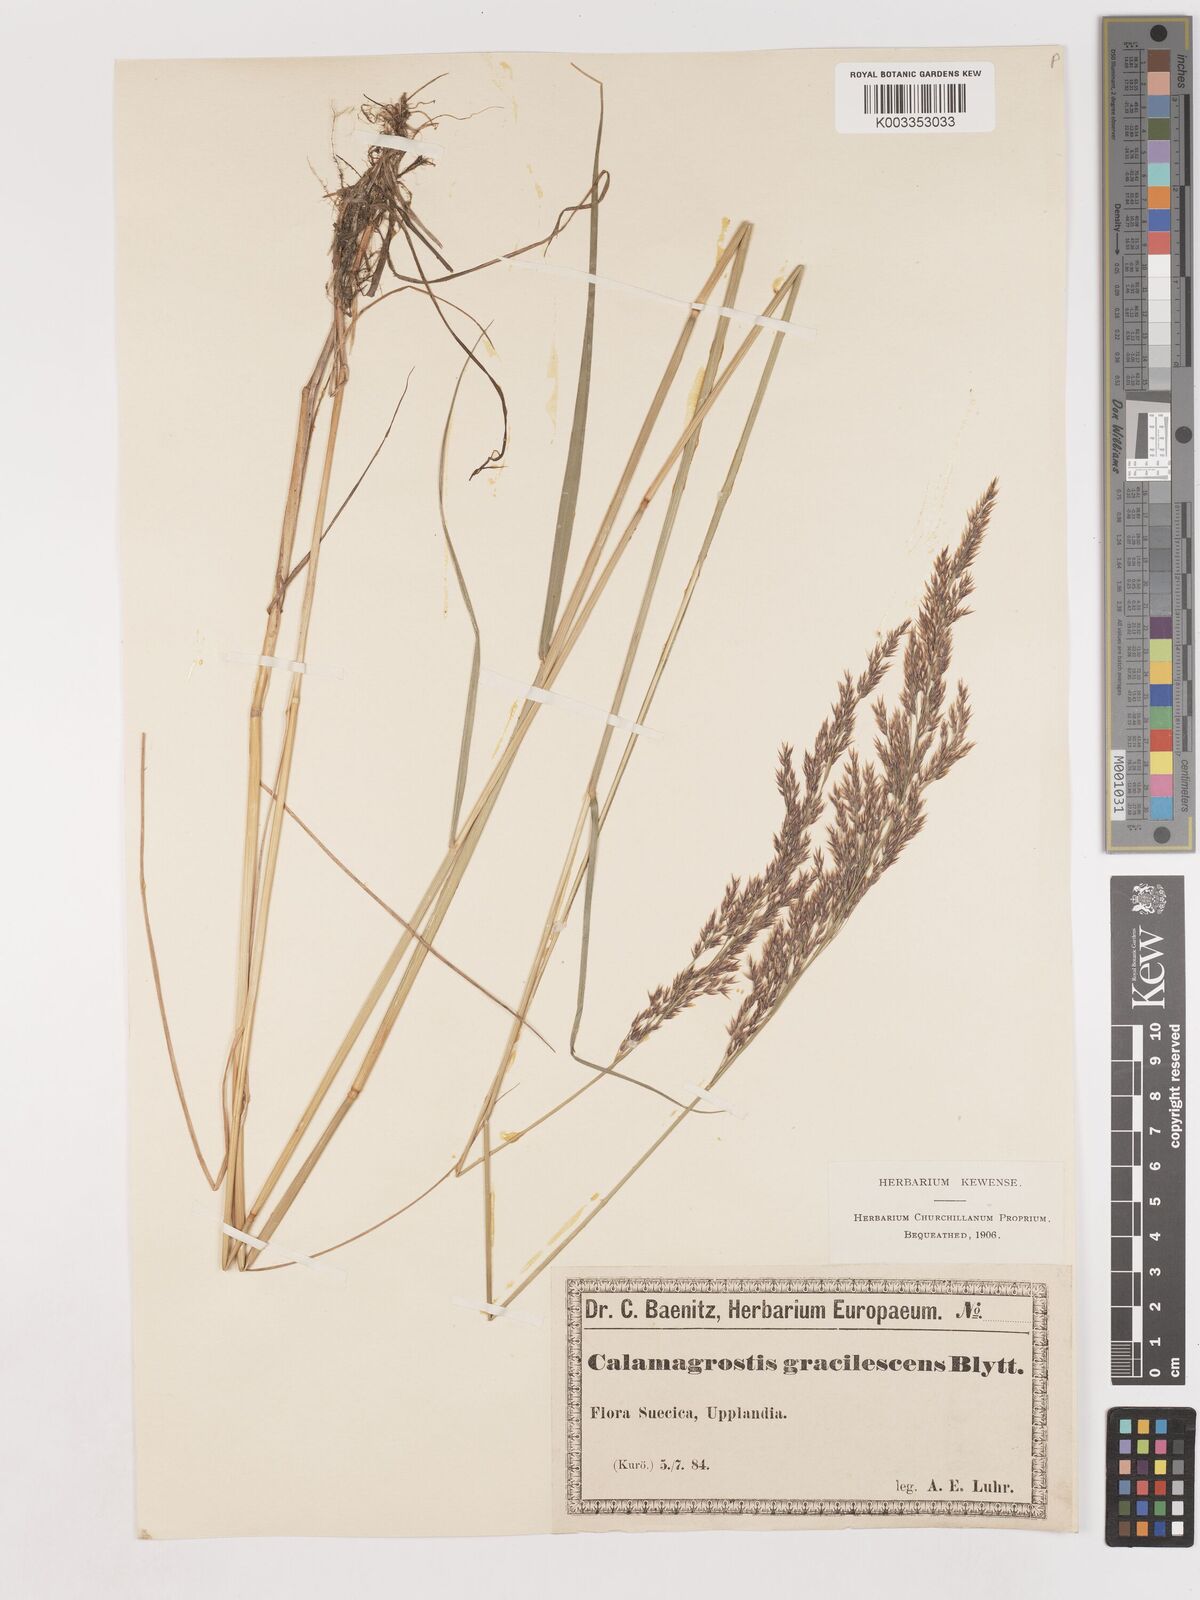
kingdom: Plantae
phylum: Tracheophyta
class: Liliopsida
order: Poales
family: Poaceae
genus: Calamagrostis
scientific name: Calamagrostis canescens
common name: Purple small-reed
